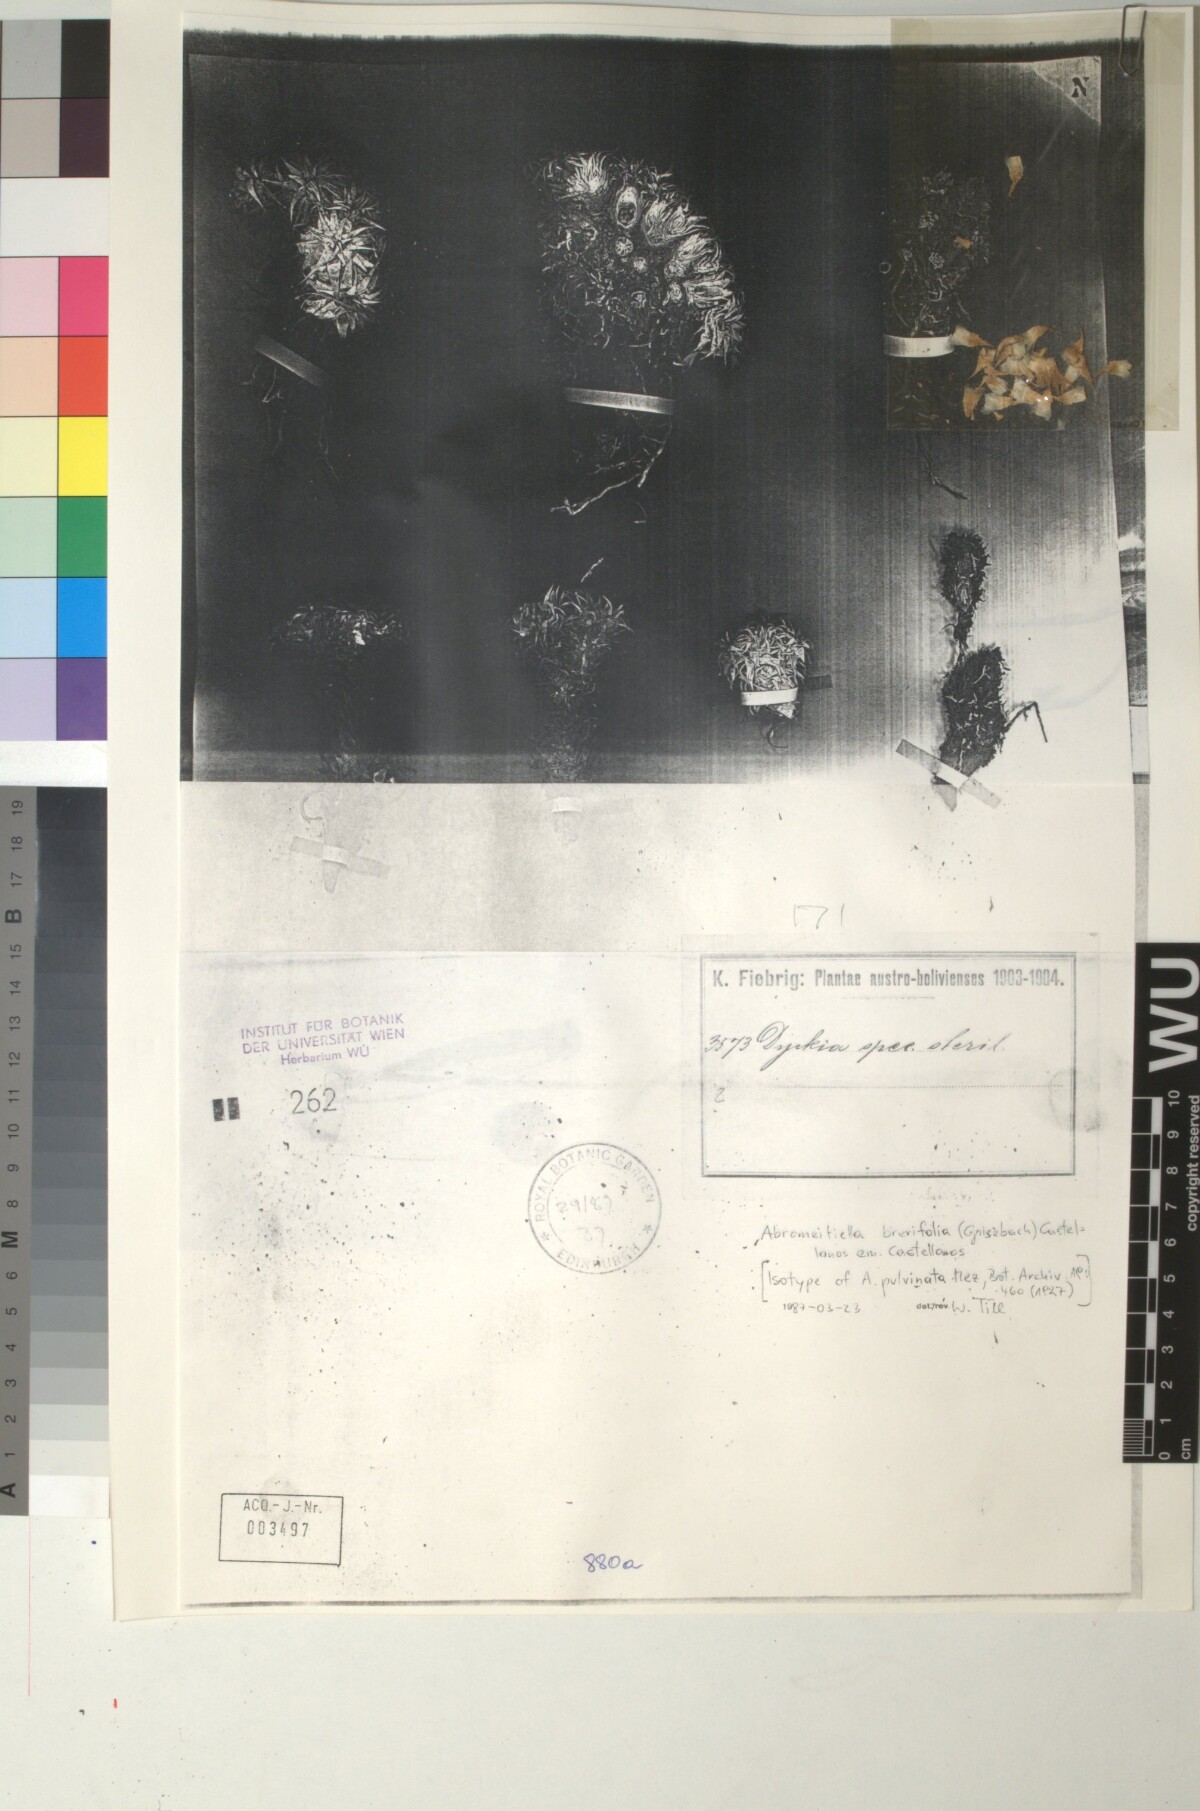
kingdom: Plantae
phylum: Tracheophyta
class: Liliopsida
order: Poales
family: Bromeliaceae
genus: Deuterocohnia
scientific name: Deuterocohnia brevifolia
